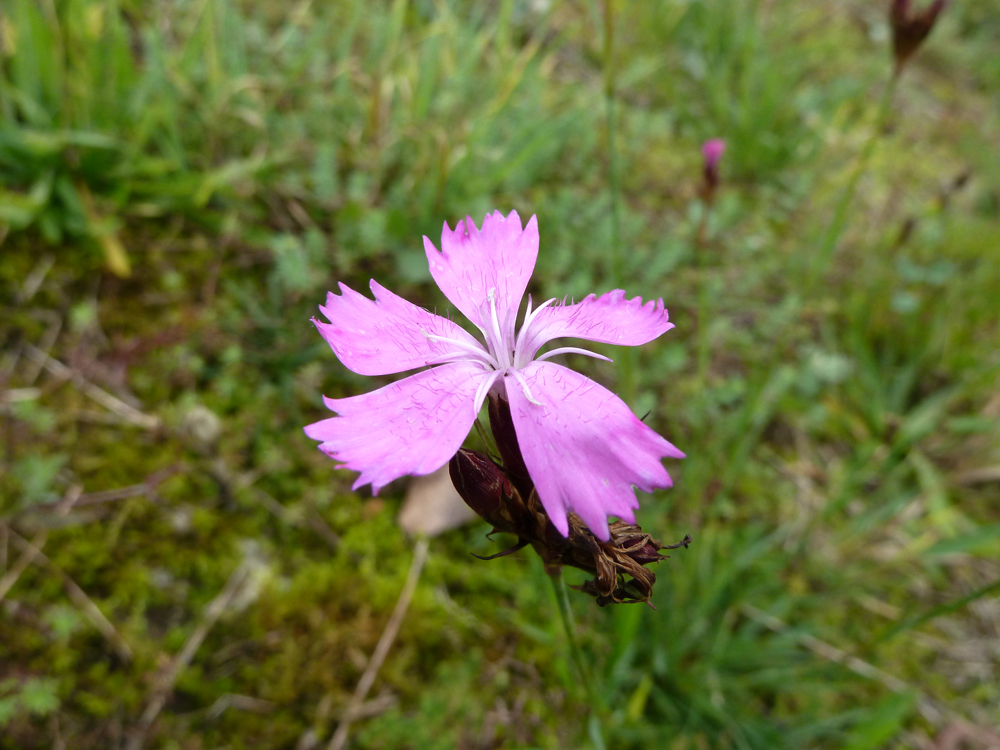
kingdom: Plantae
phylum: Tracheophyta
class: Magnoliopsida
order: Caryophyllales
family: Caryophyllaceae
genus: Dianthus
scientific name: Dianthus carthusianorum
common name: Carthusian pink
